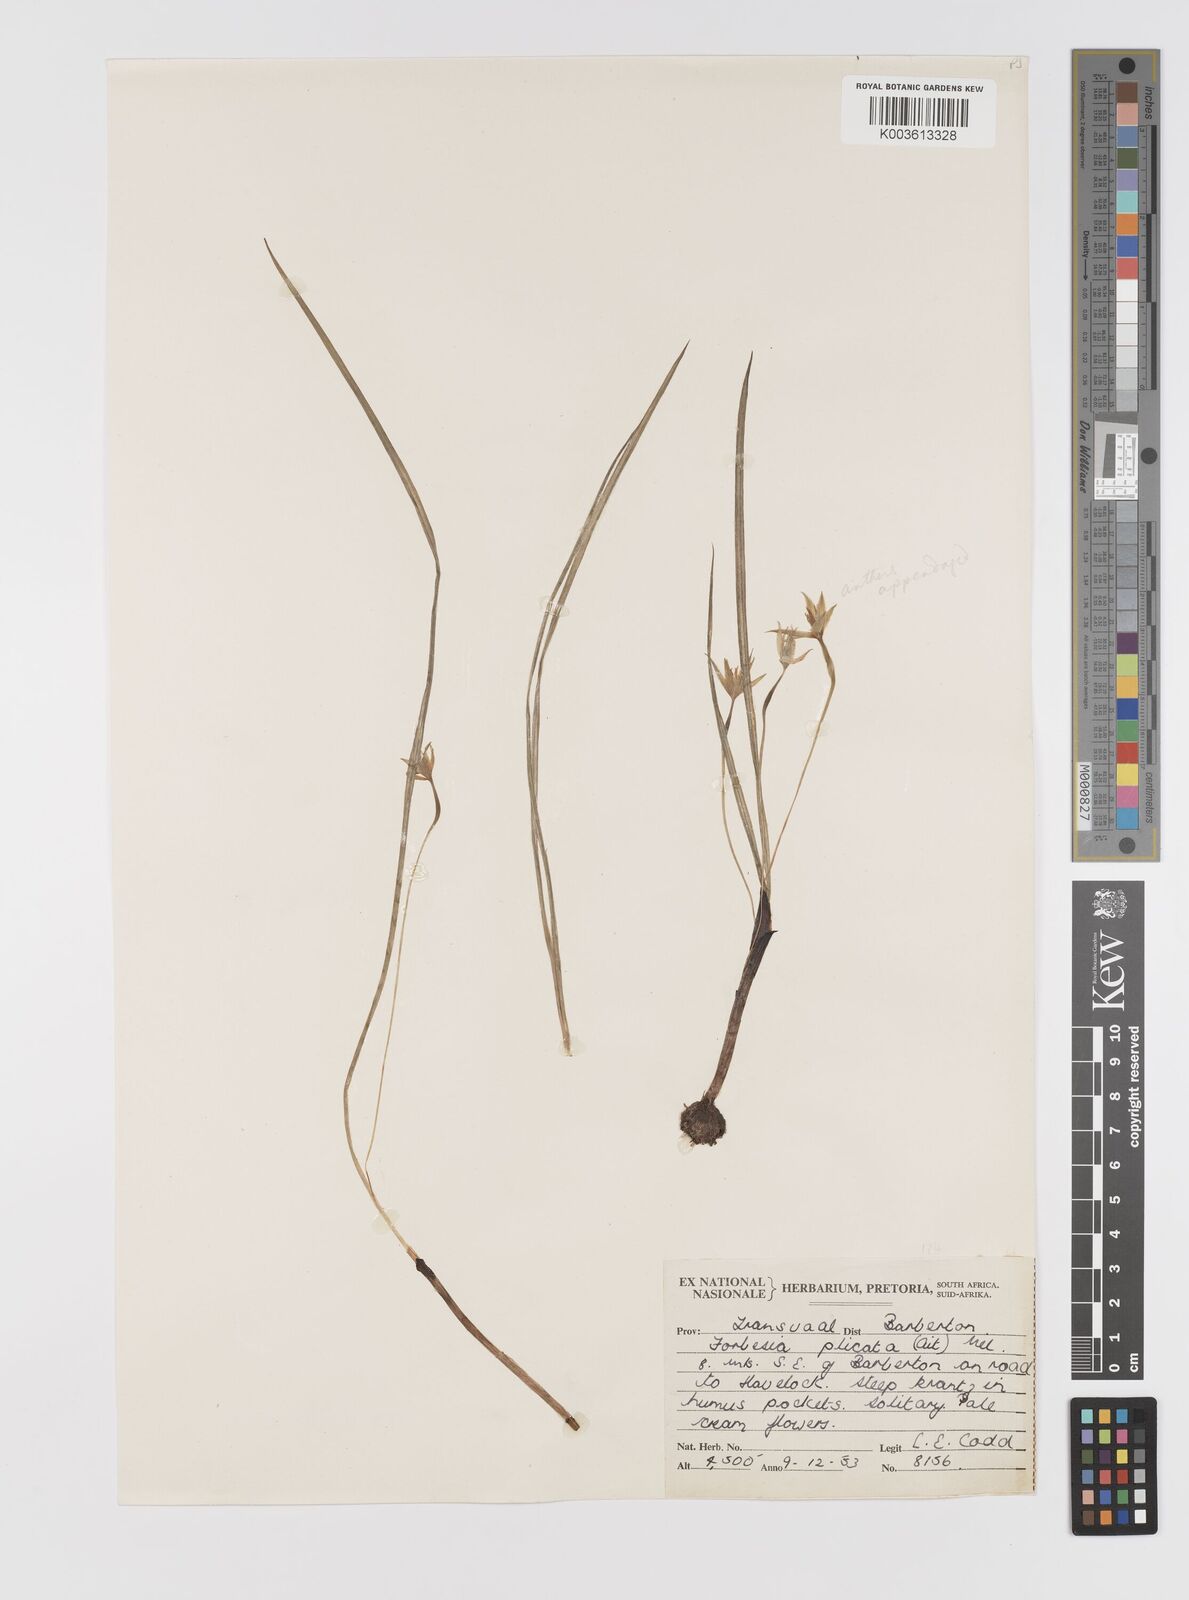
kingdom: Plantae
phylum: Tracheophyta
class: Liliopsida
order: Asparagales
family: Hypoxidaceae
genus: Empodium
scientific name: Empodium elongatum
